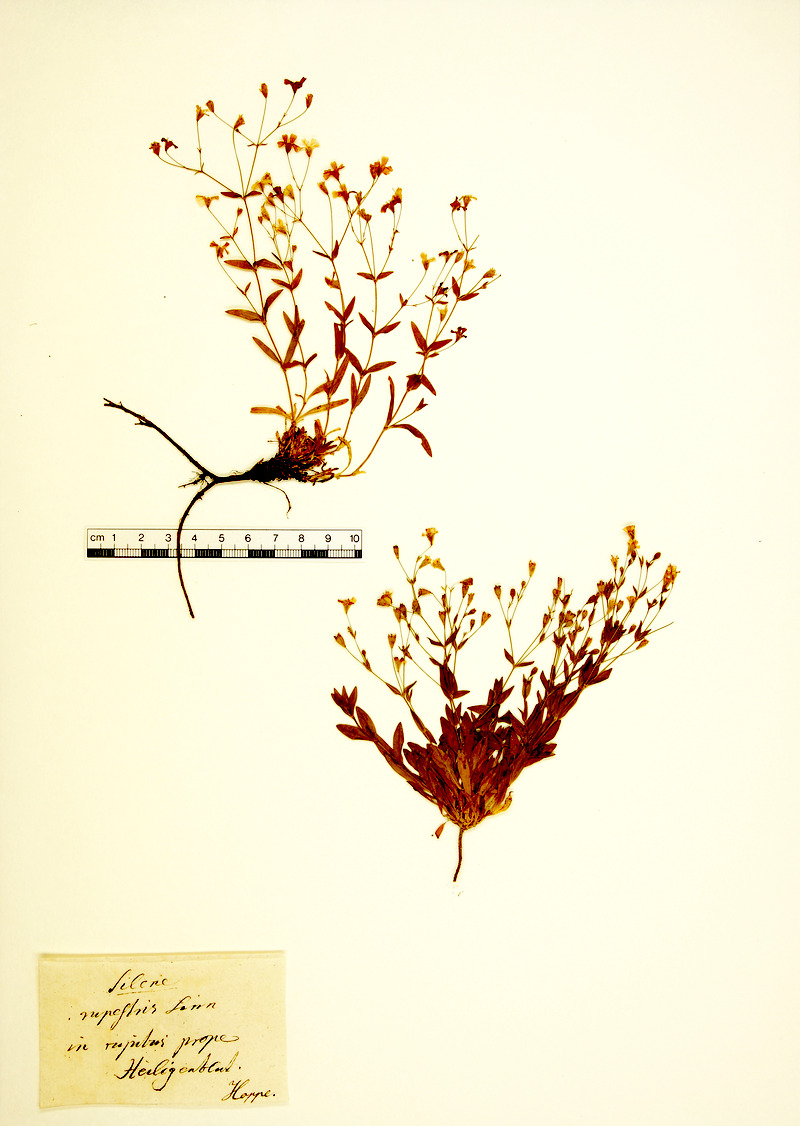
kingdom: Plantae
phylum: Tracheophyta
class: Magnoliopsida
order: Caryophyllales
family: Caryophyllaceae
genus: Atocion
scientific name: Atocion rupestre
